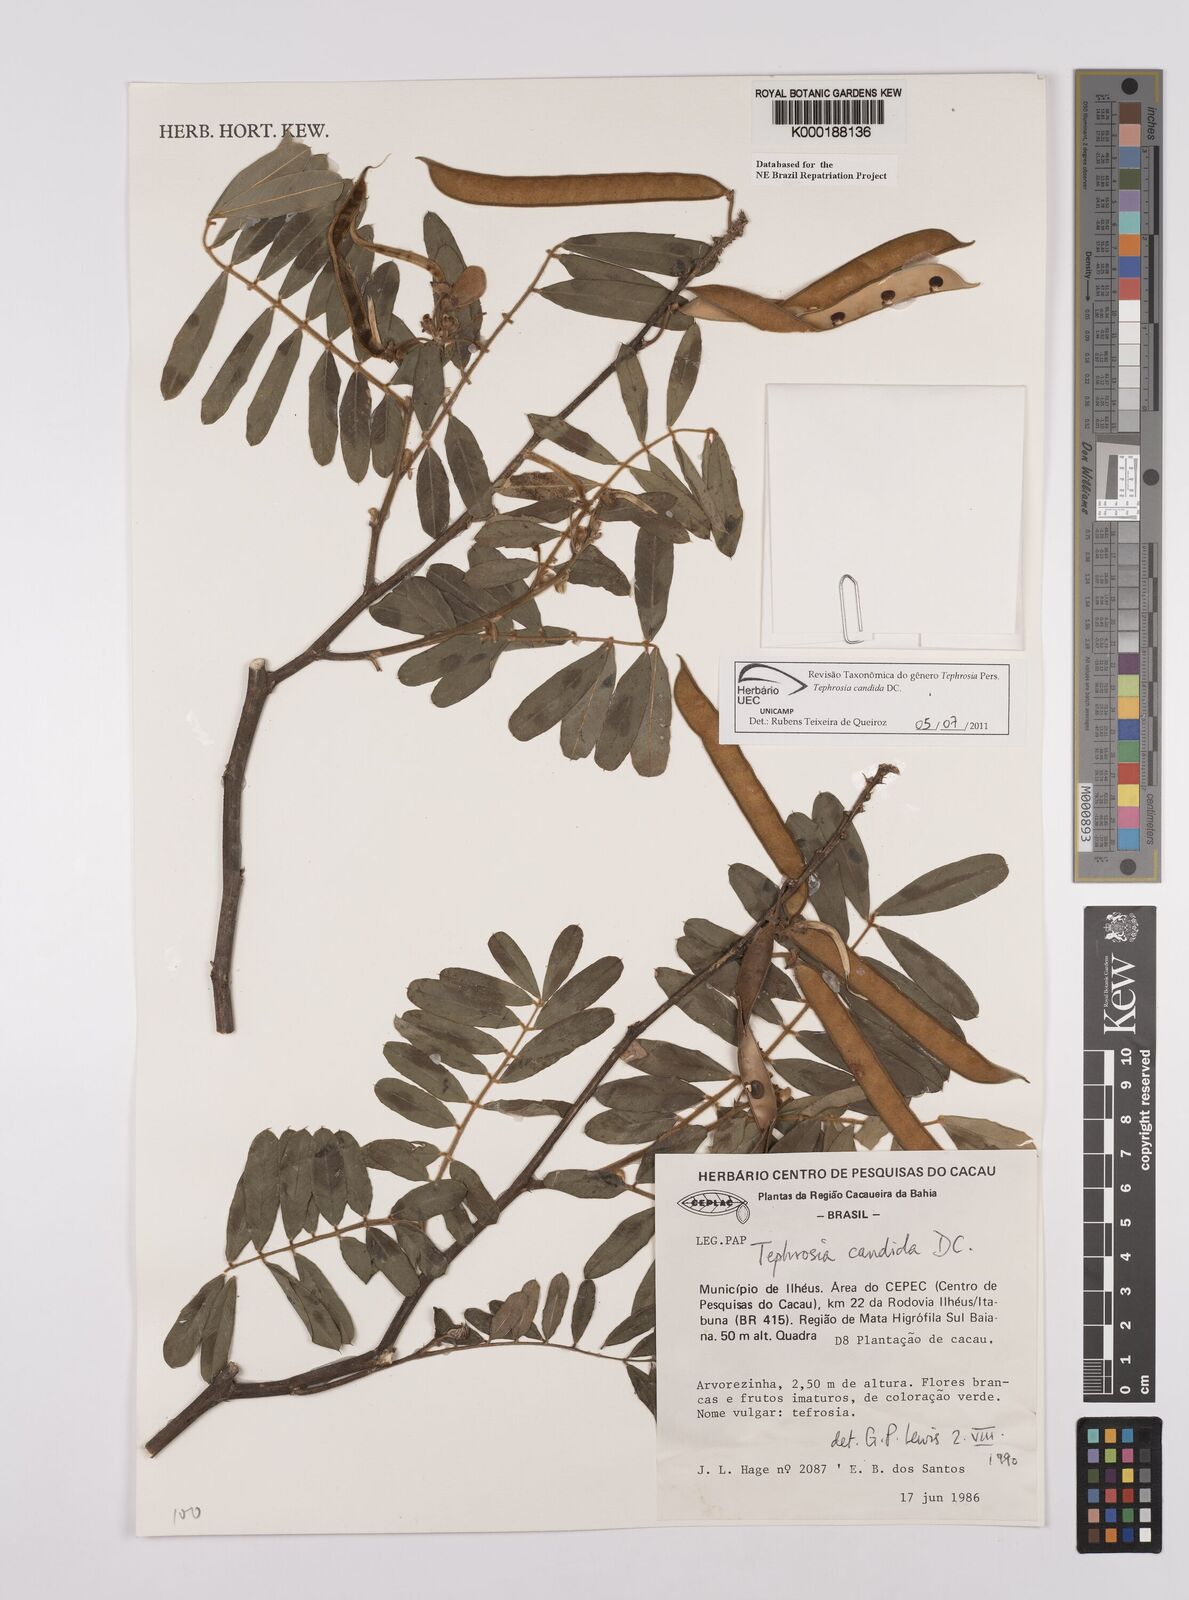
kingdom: Plantae
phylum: Tracheophyta
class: Magnoliopsida
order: Fabales
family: Fabaceae
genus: Tephrosia
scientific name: Tephrosia candida
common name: White tephrosia
